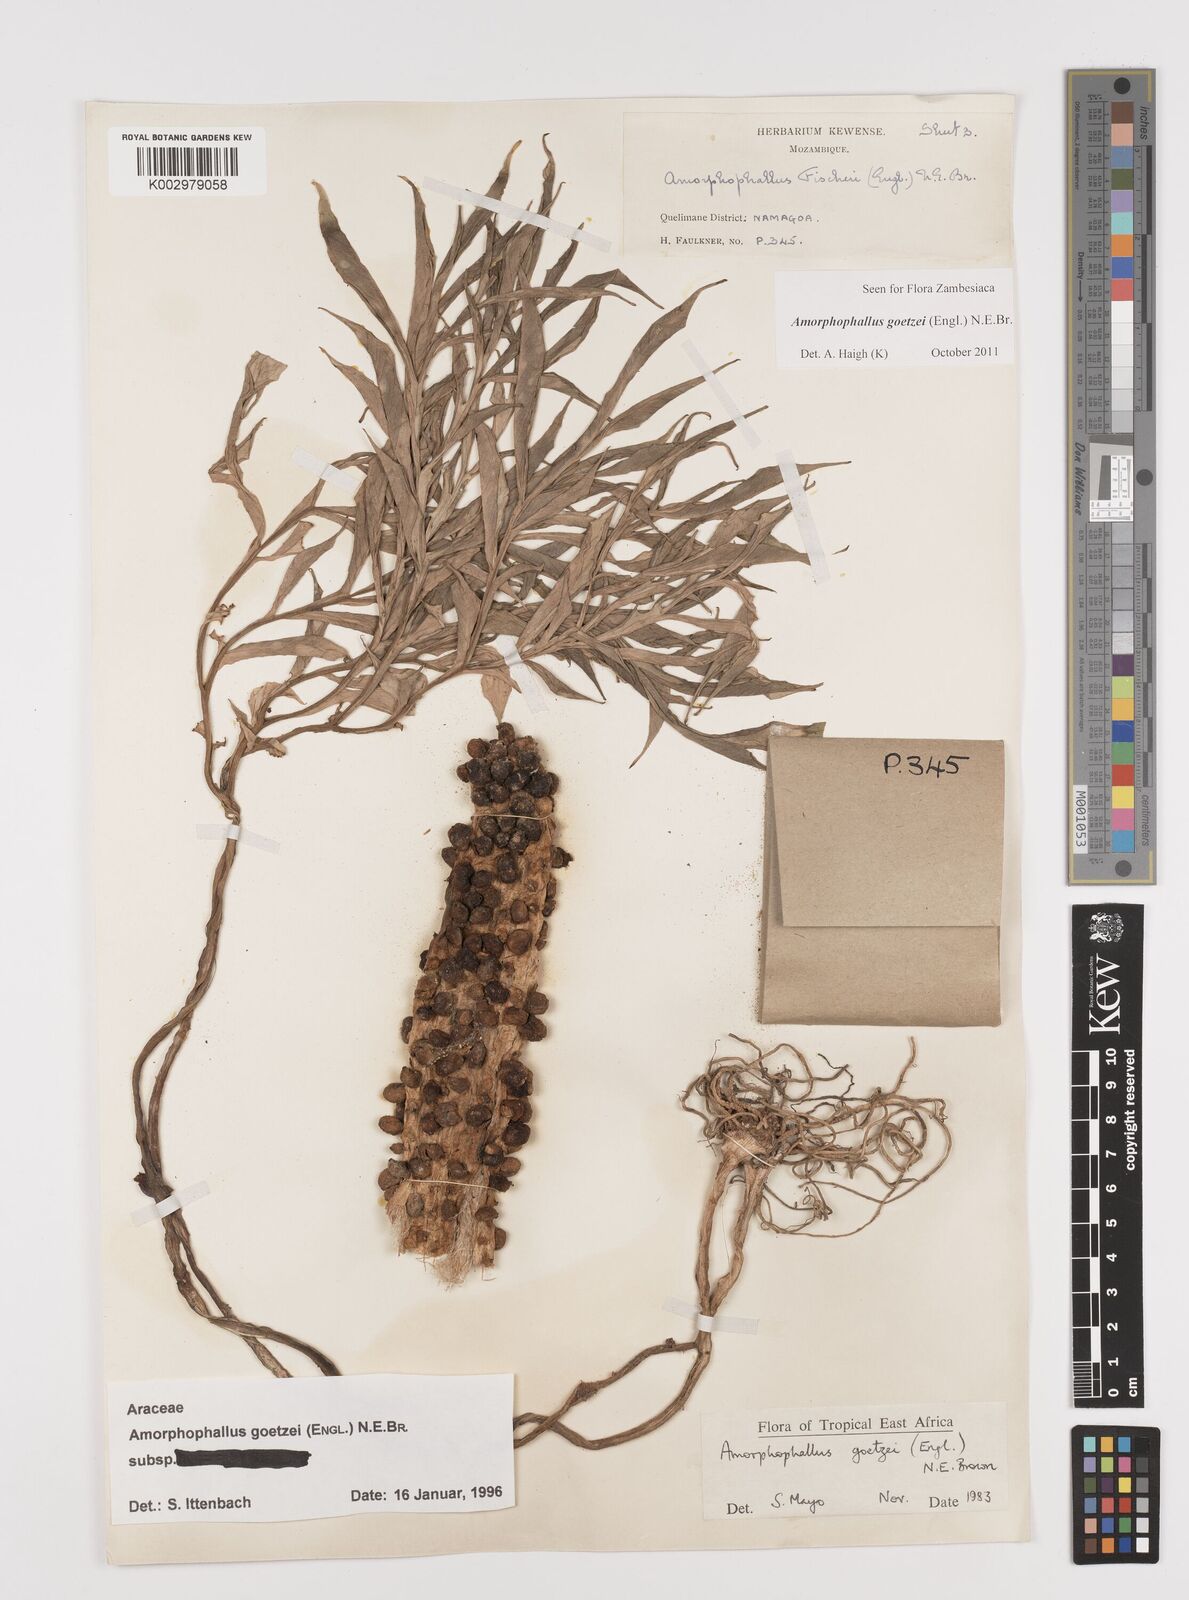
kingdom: Plantae
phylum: Tracheophyta
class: Liliopsida
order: Alismatales
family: Araceae
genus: Amorphophallus
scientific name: Amorphophallus goetzei
